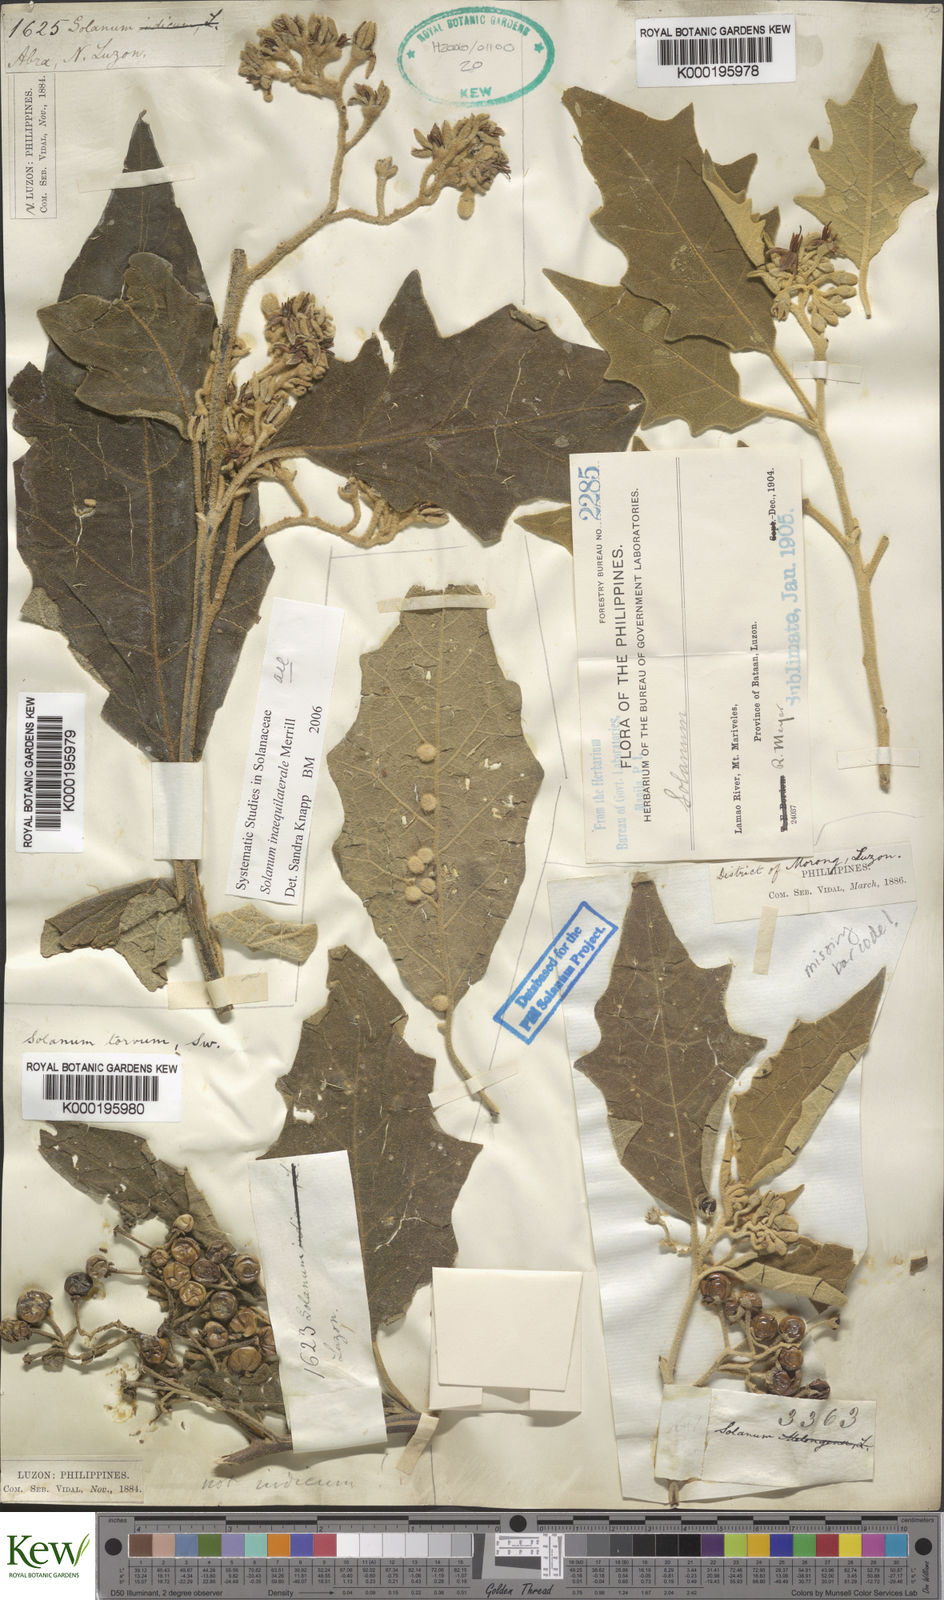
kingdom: Plantae
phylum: Tracheophyta
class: Magnoliopsida
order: Solanales
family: Solanaceae
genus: Solanum
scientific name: Solanum torvoideum
